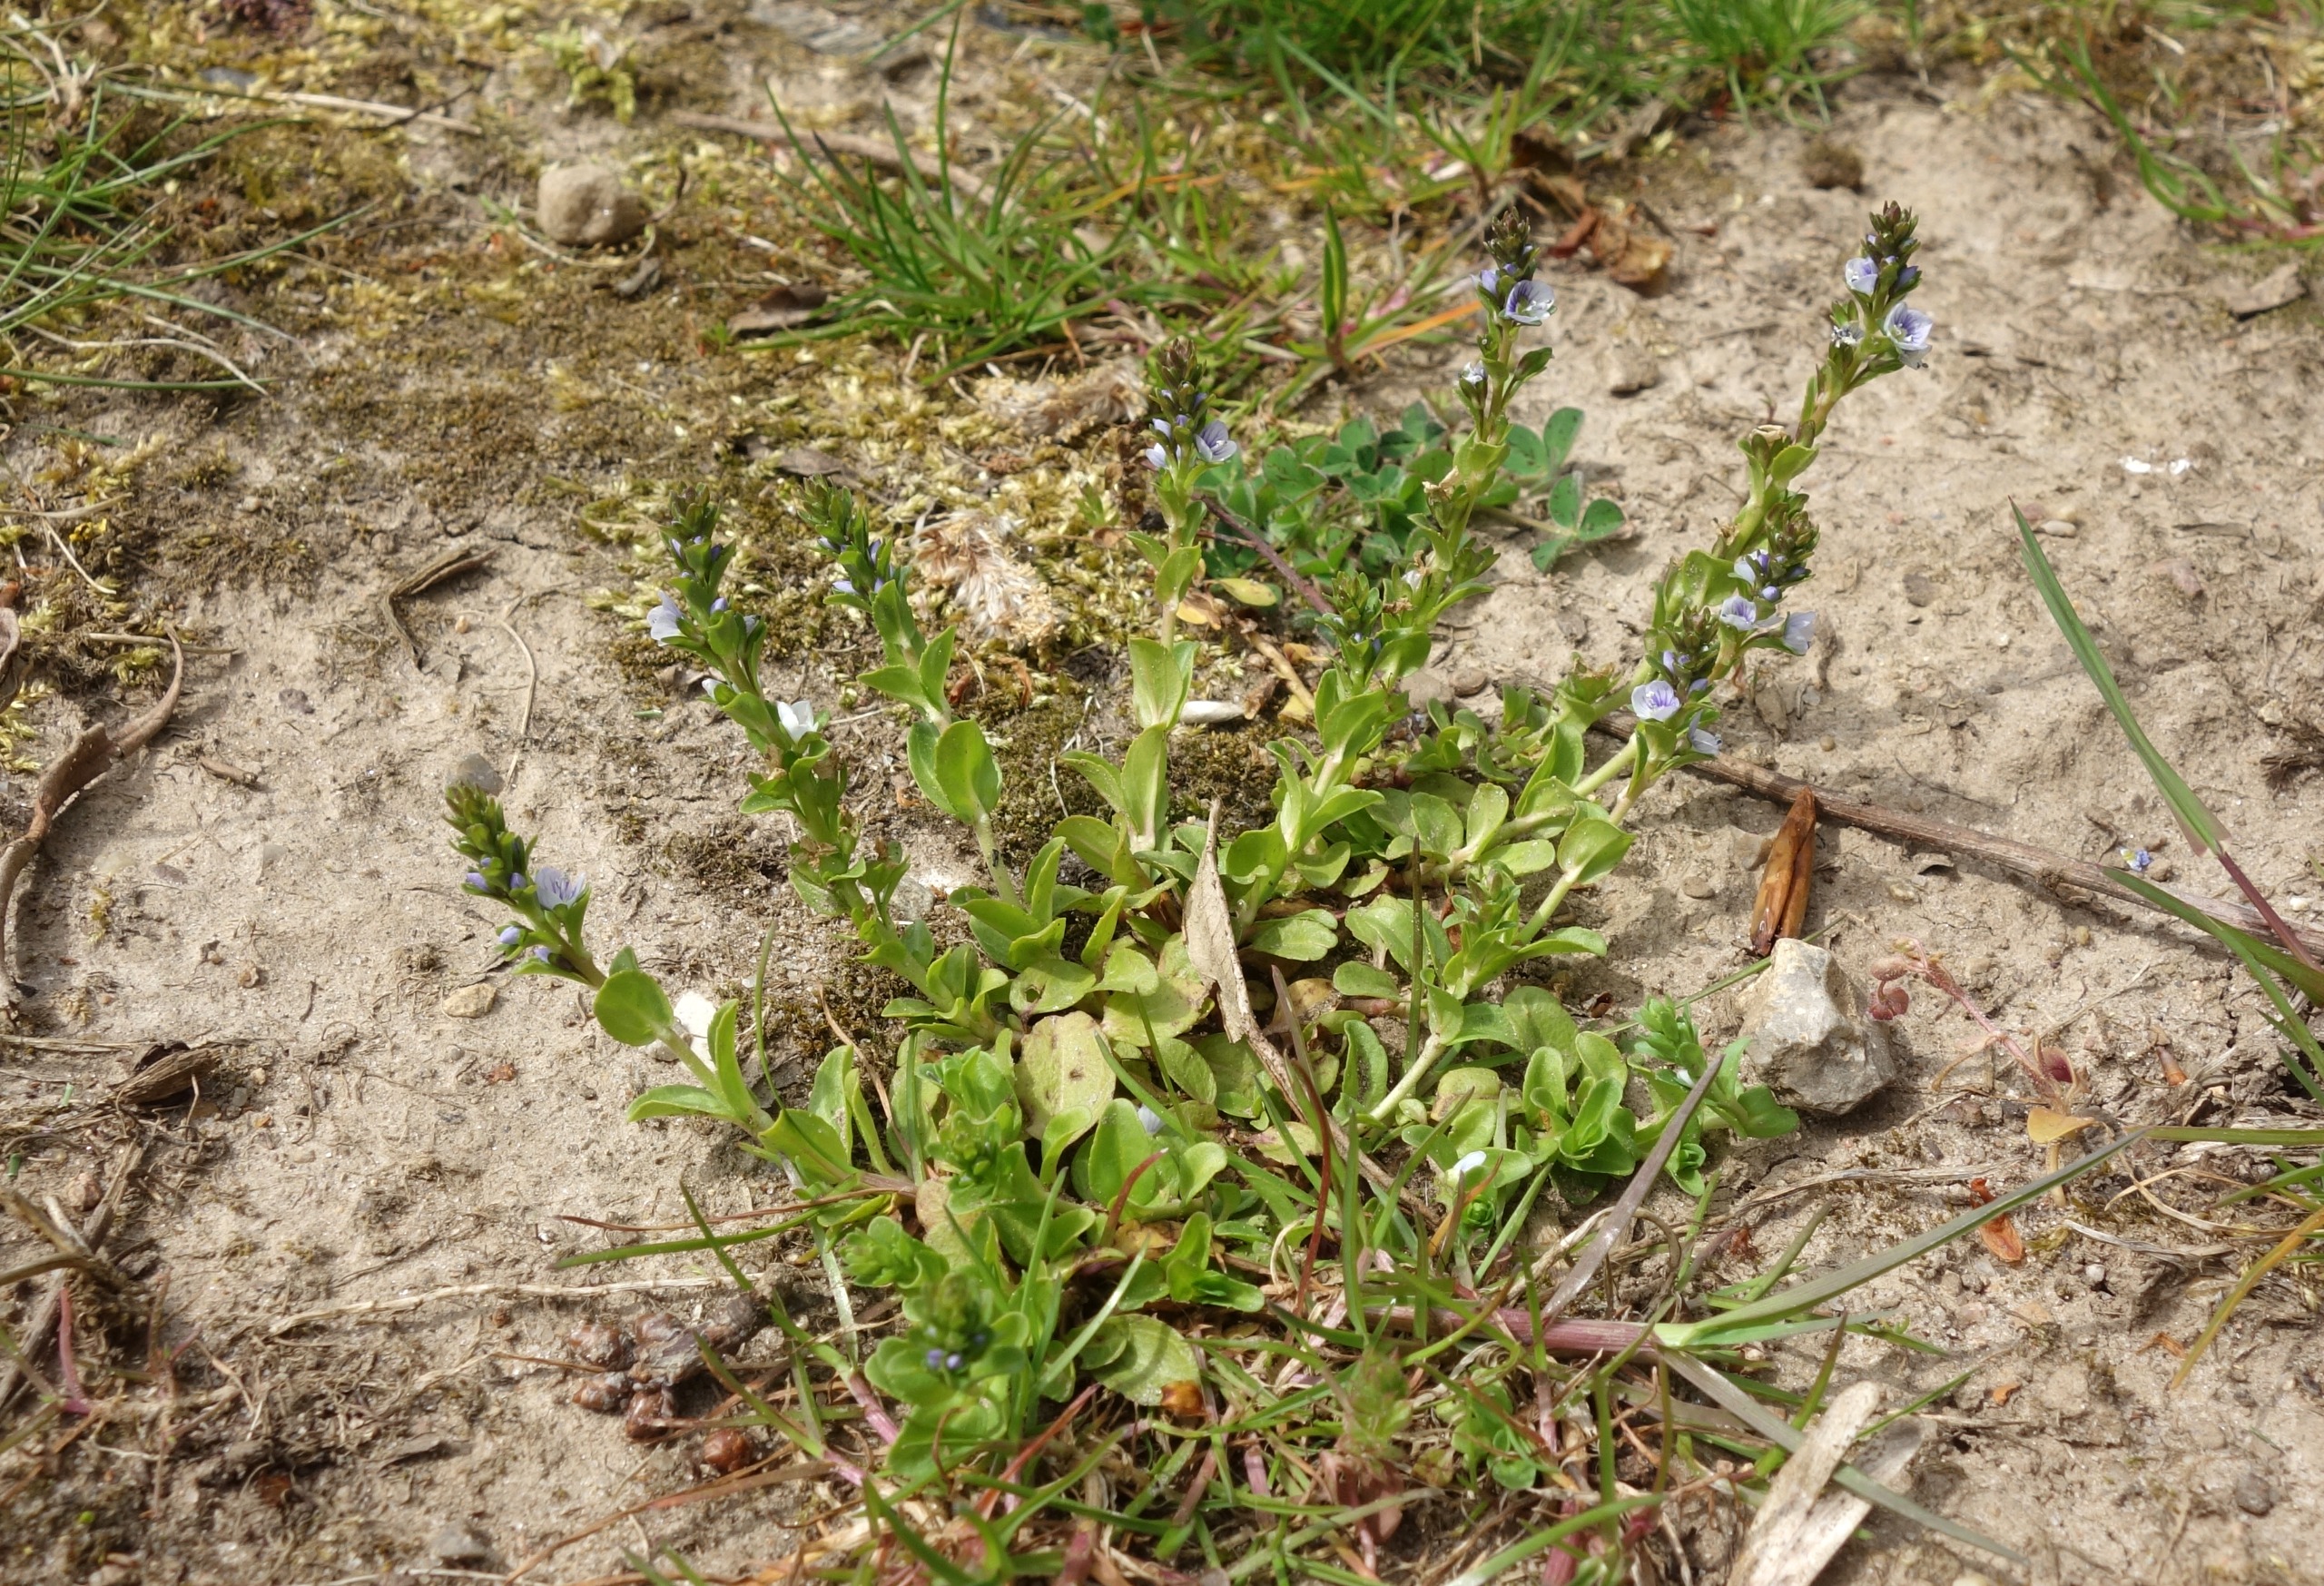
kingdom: Plantae
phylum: Tracheophyta
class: Magnoliopsida
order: Lamiales
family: Plantaginaceae
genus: Veronica
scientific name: Veronica serpyllifolia
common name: Glat ærenpris
